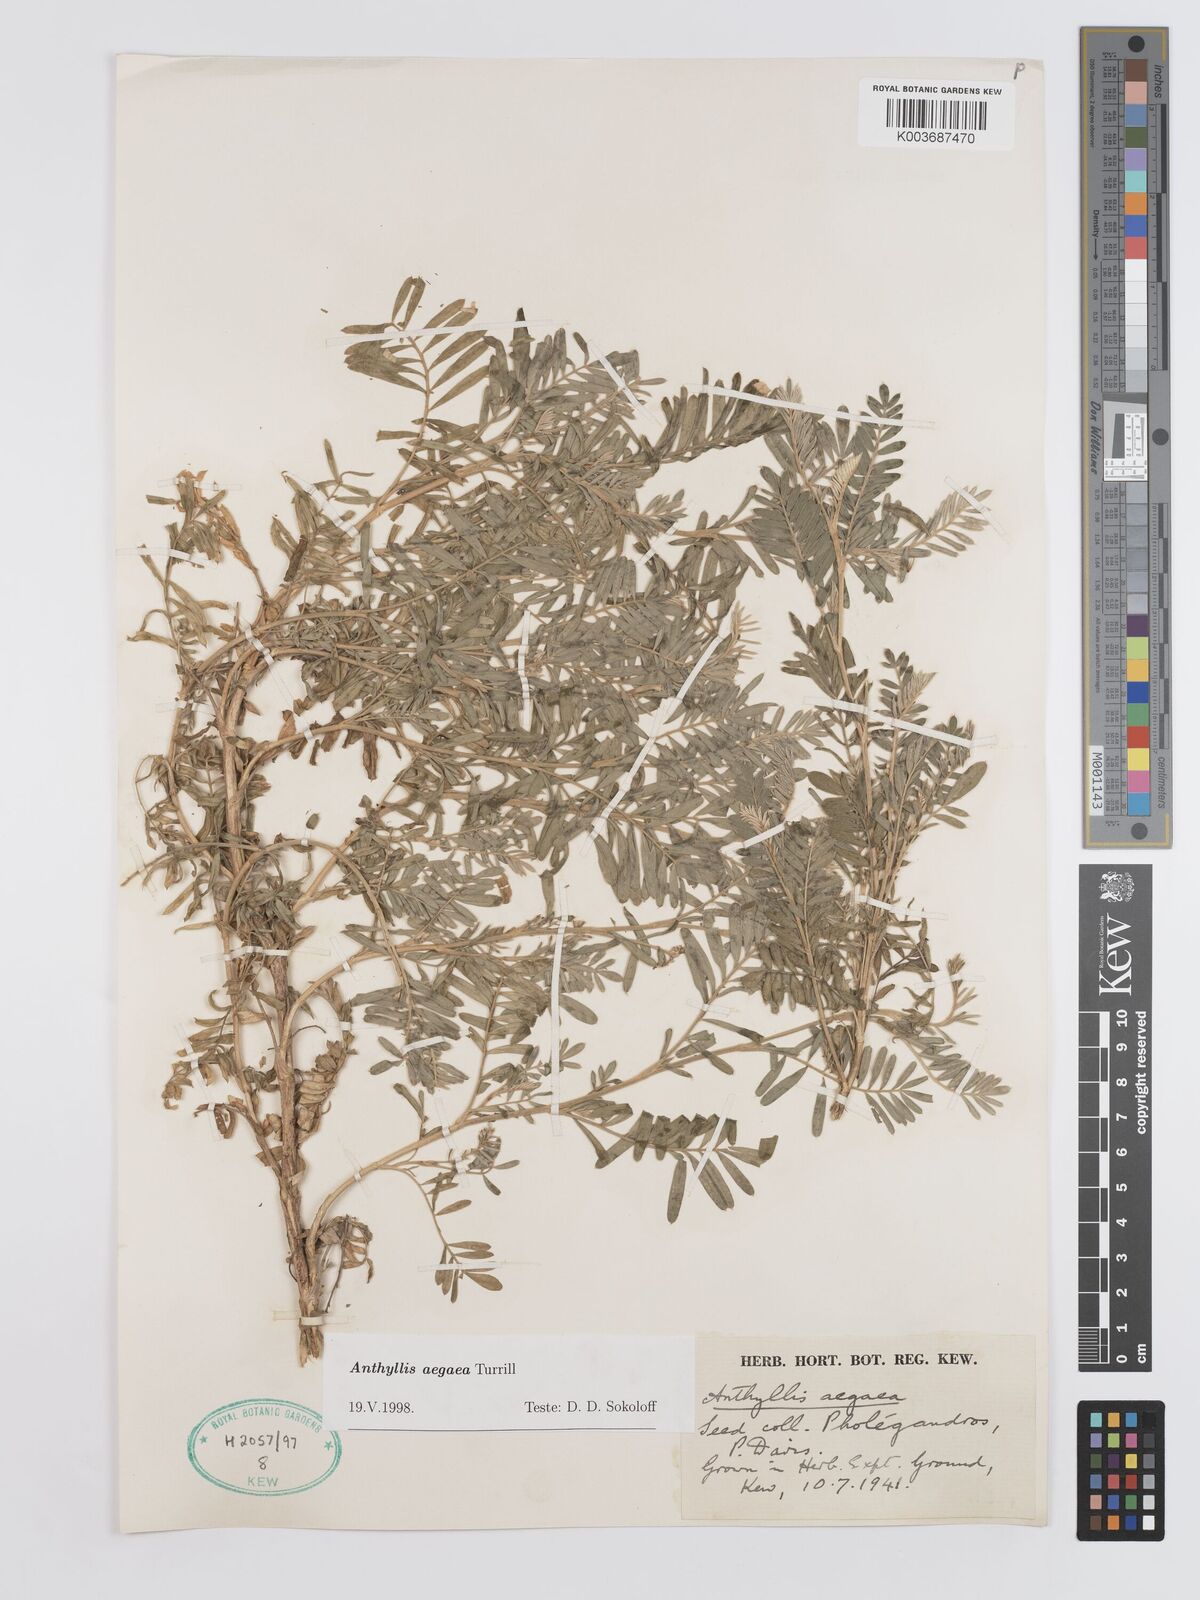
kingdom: Plantae
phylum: Tracheophyta
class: Magnoliopsida
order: Fabales
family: Fabaceae
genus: Anthyllis
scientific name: Anthyllis splendens
